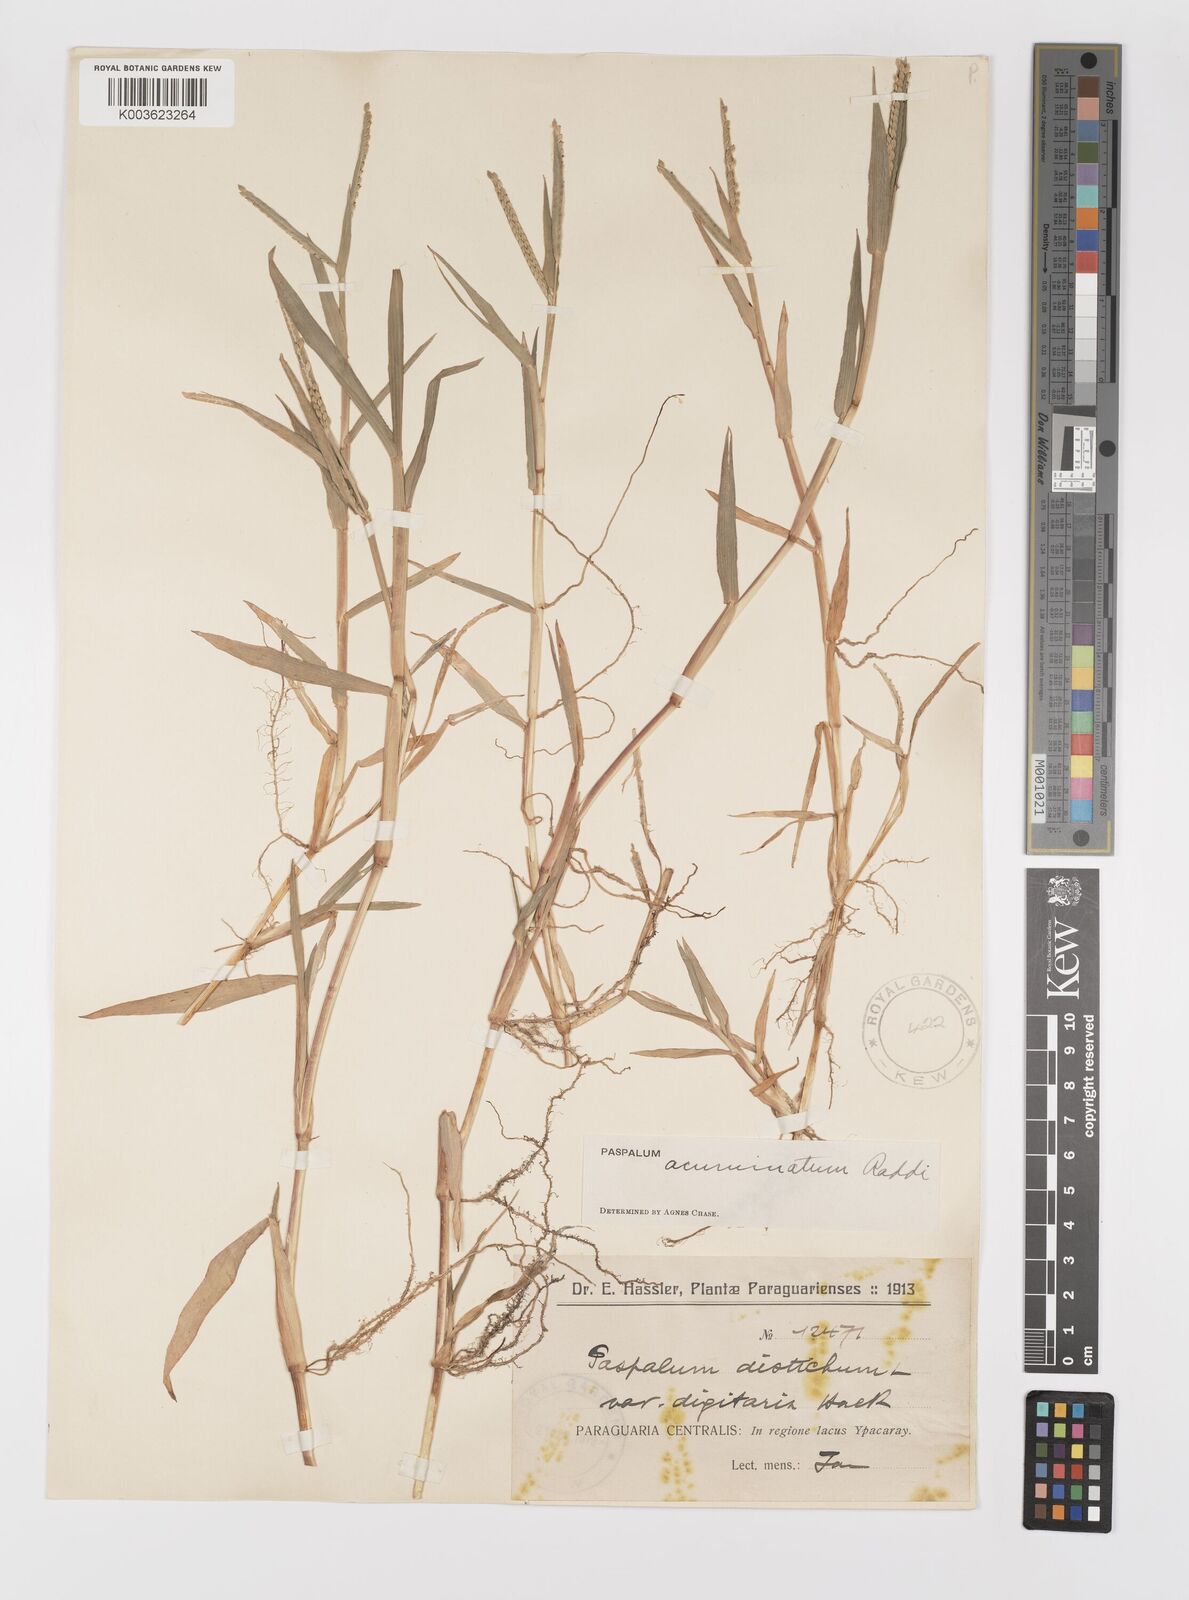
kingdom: Plantae
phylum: Tracheophyta
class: Liliopsida
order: Poales
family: Poaceae
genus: Paspalum
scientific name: Paspalum acuminatum
